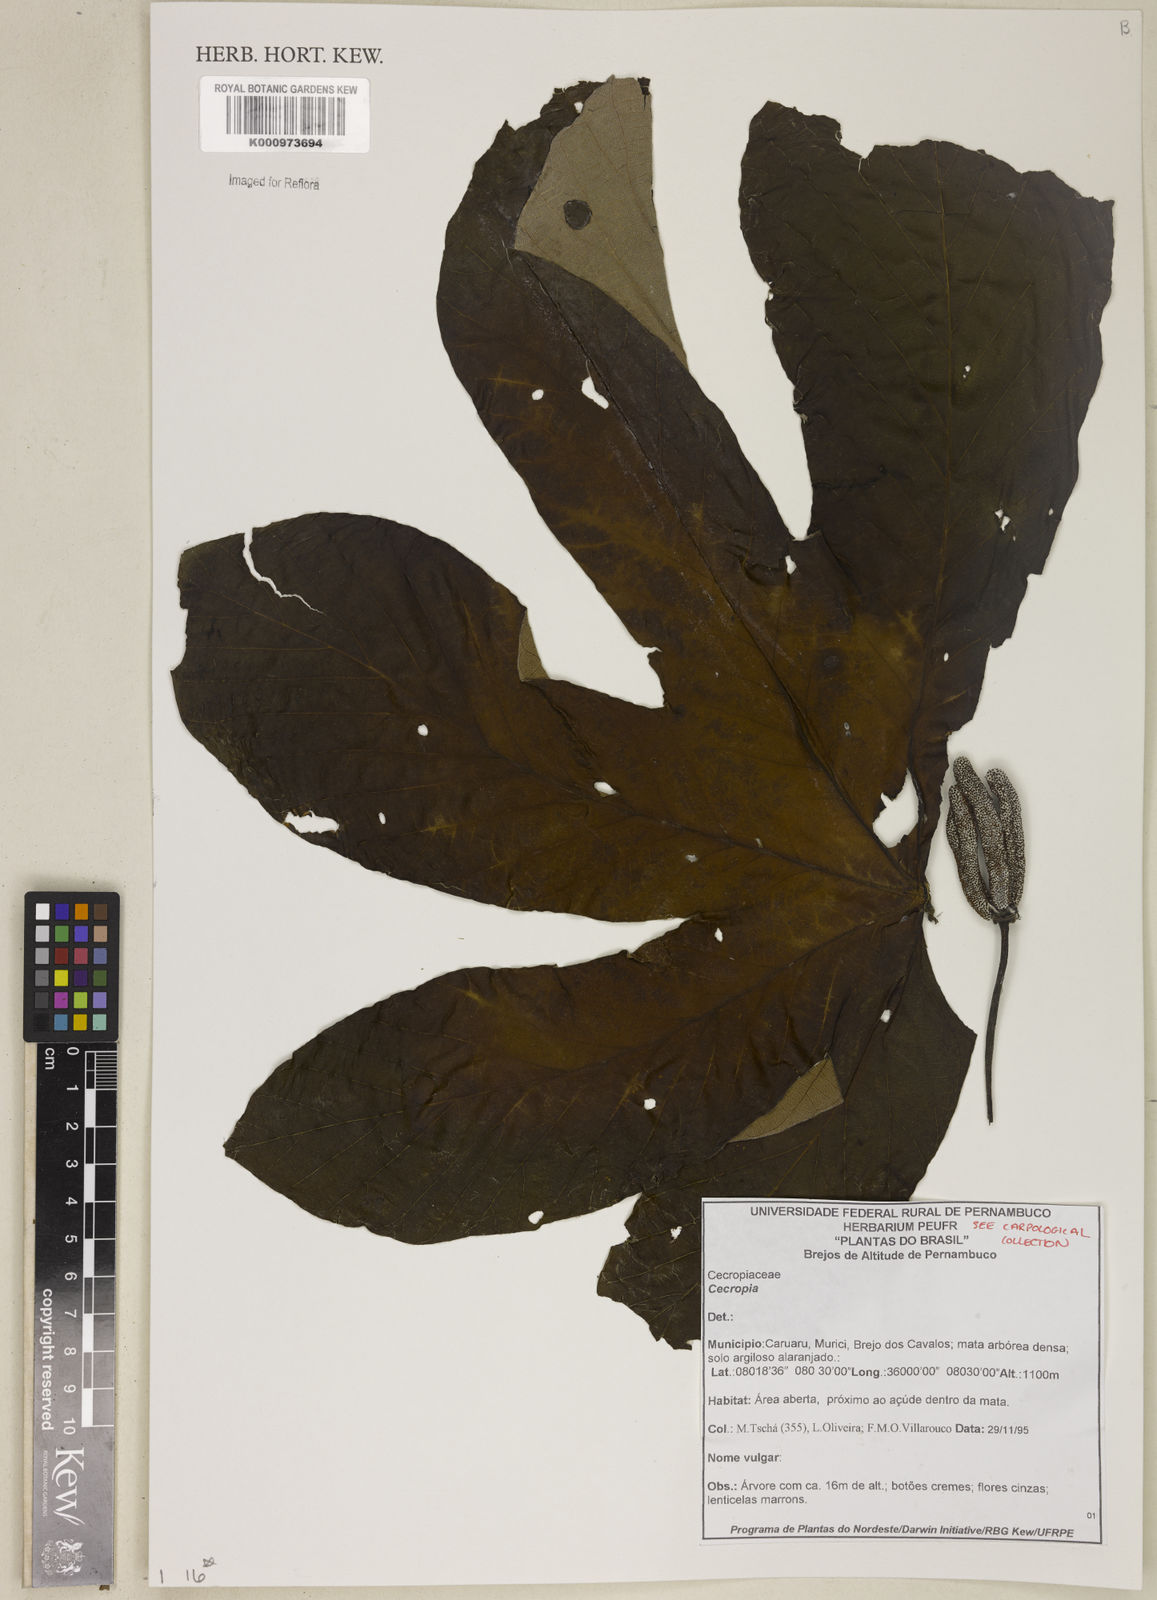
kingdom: Plantae
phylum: Tracheophyta
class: Magnoliopsida
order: Rosales
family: Urticaceae
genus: Cecropia
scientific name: Cecropia
